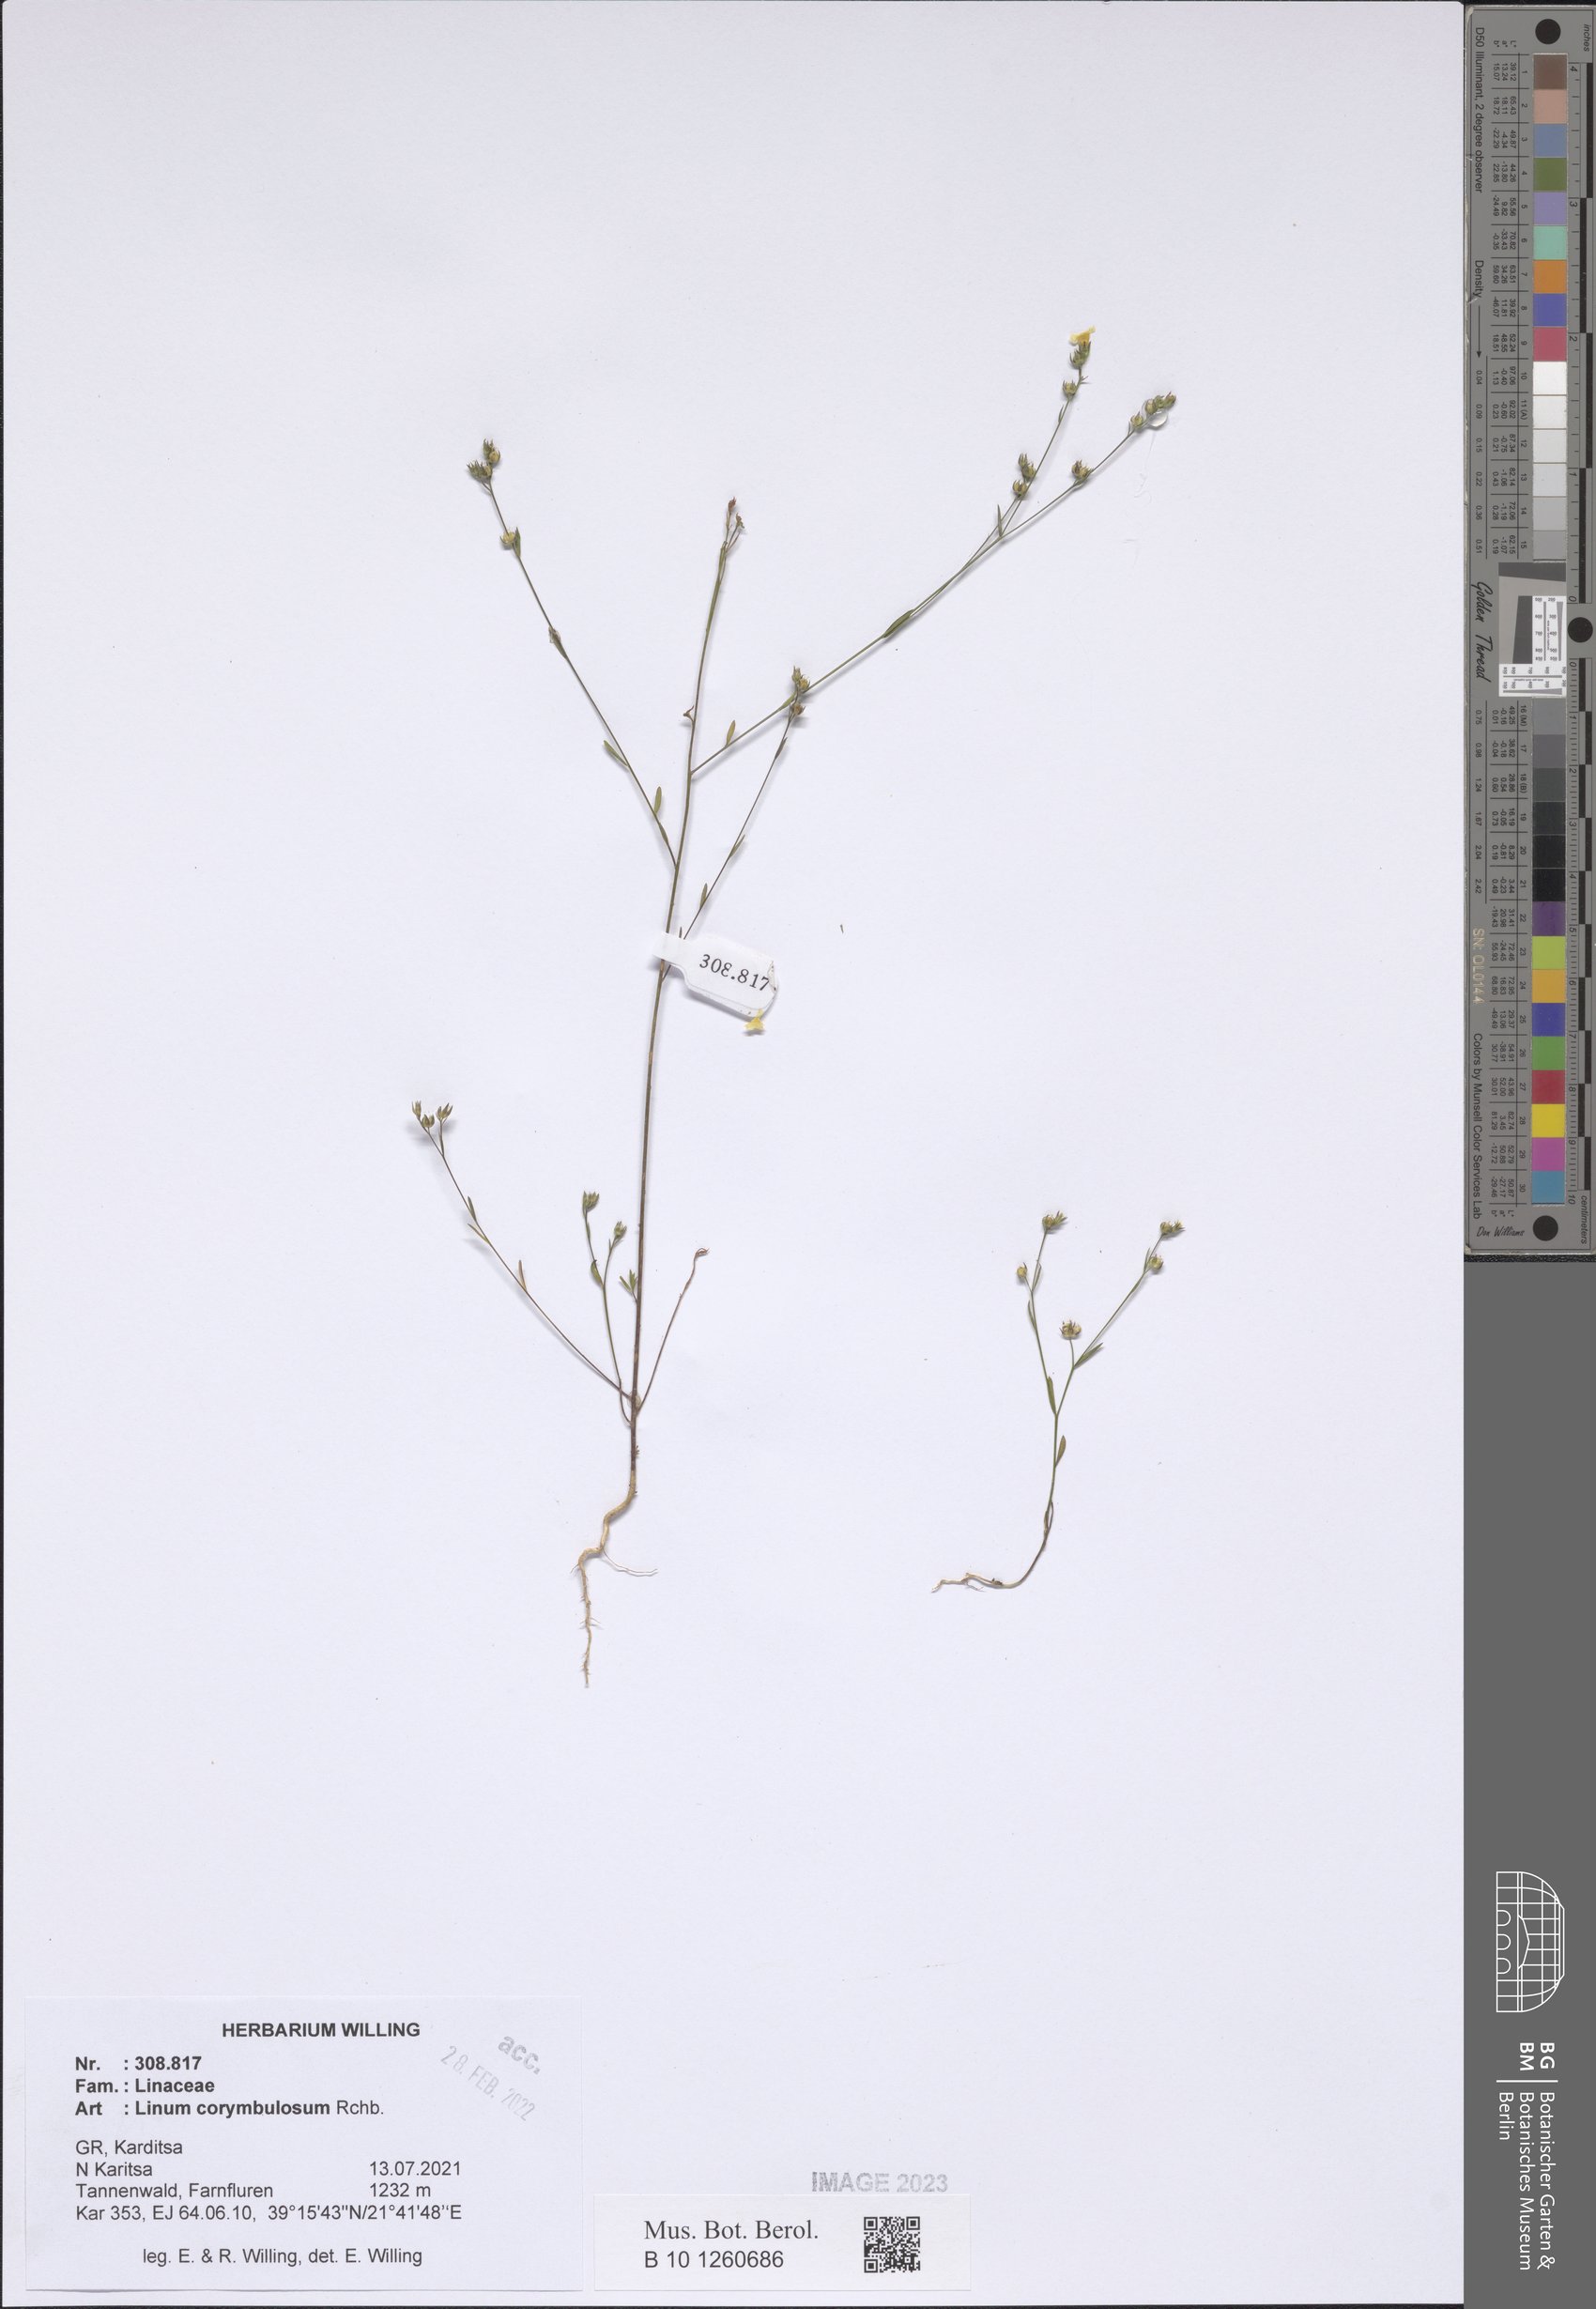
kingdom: Plantae
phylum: Tracheophyta
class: Magnoliopsida
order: Malpighiales
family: Linaceae
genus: Linum
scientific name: Linum corymbulosum
